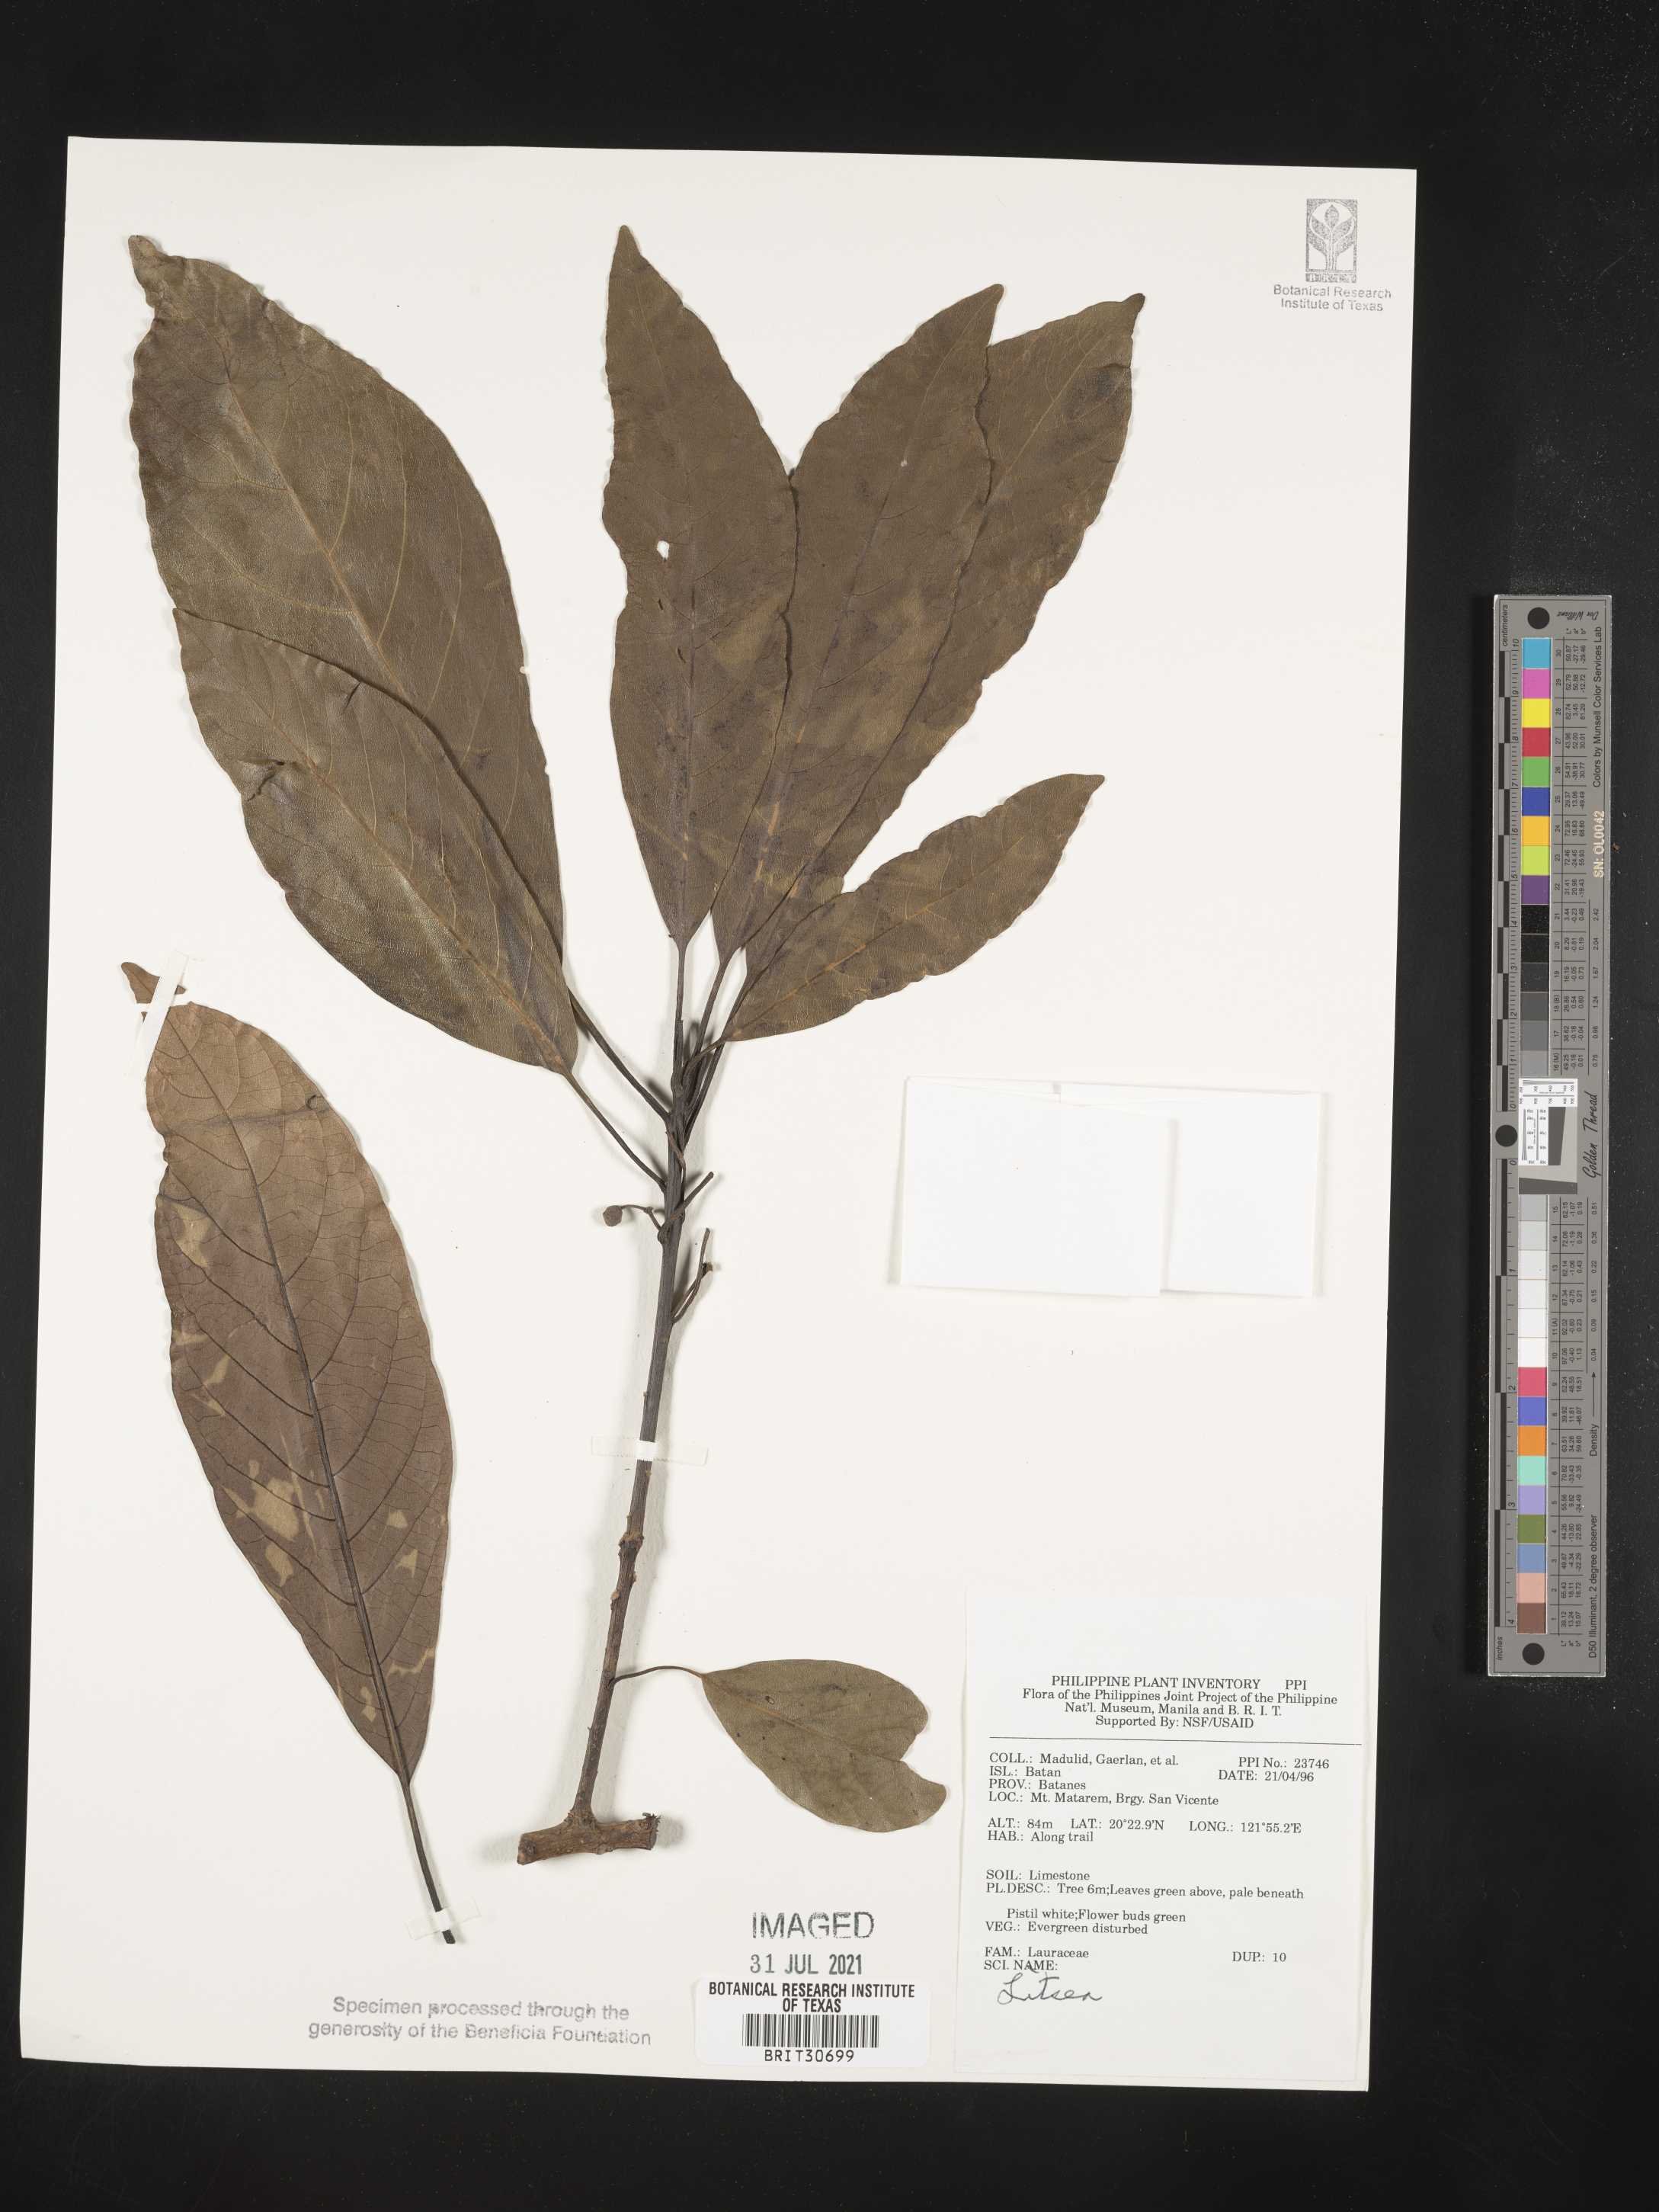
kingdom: Plantae
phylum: Tracheophyta
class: Magnoliopsida
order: Laurales
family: Lauraceae
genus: Litsea
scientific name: Litsea
